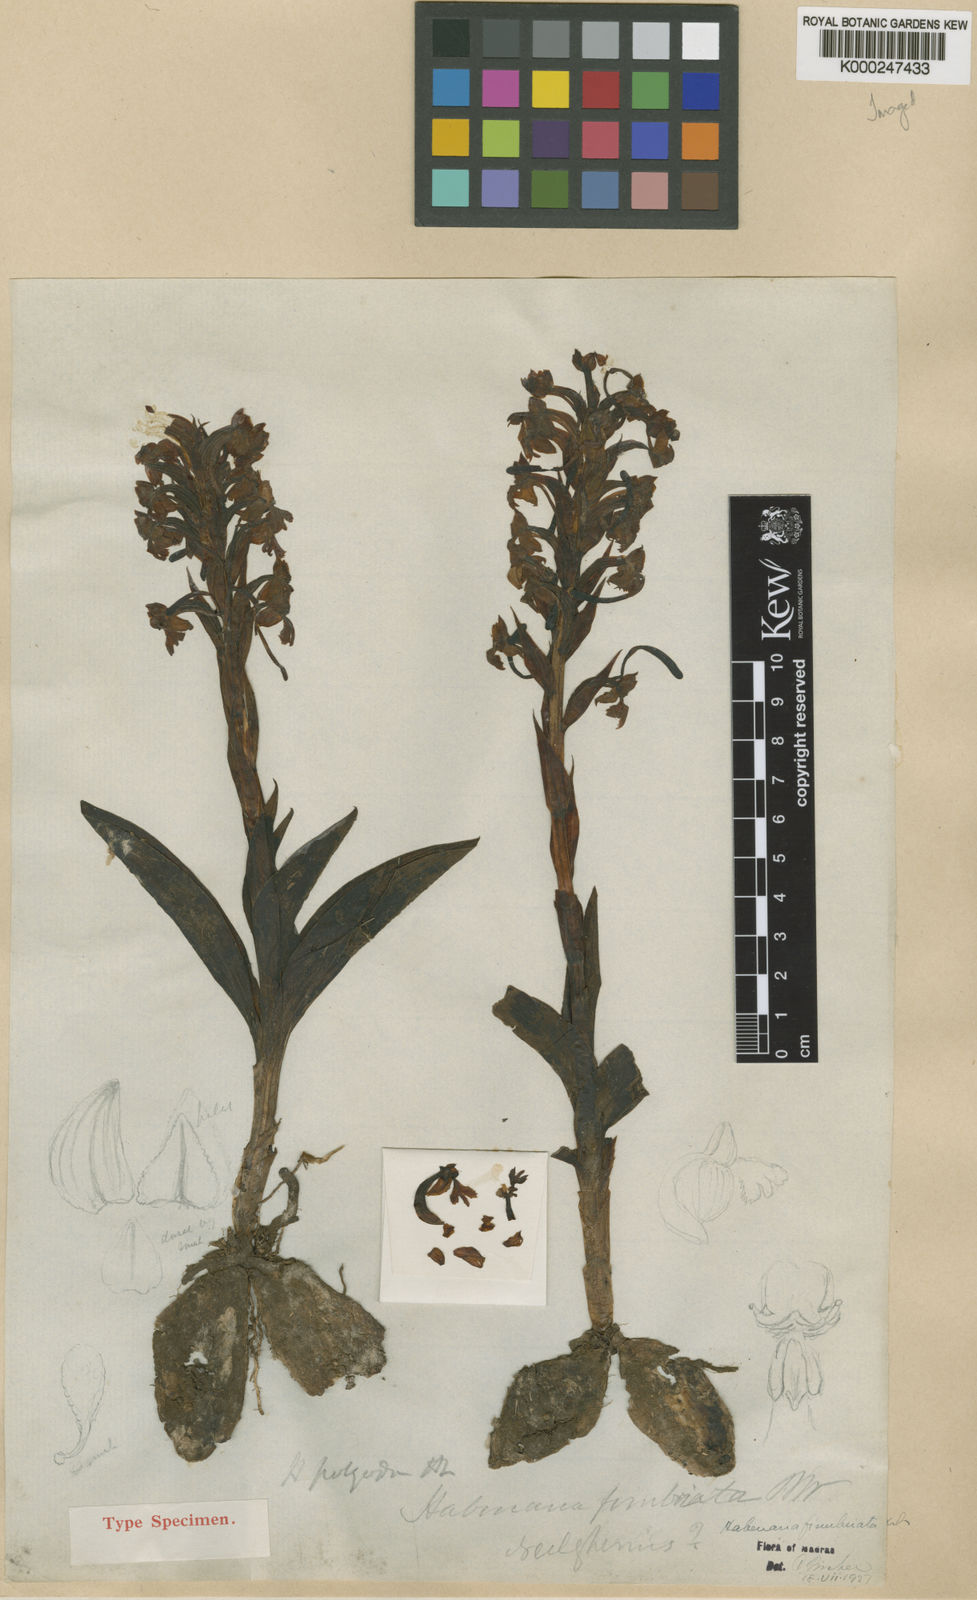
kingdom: Plantae
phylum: Tracheophyta
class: Liliopsida
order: Asparagales
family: Orchidaceae
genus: Habenaria
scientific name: Habenaria
